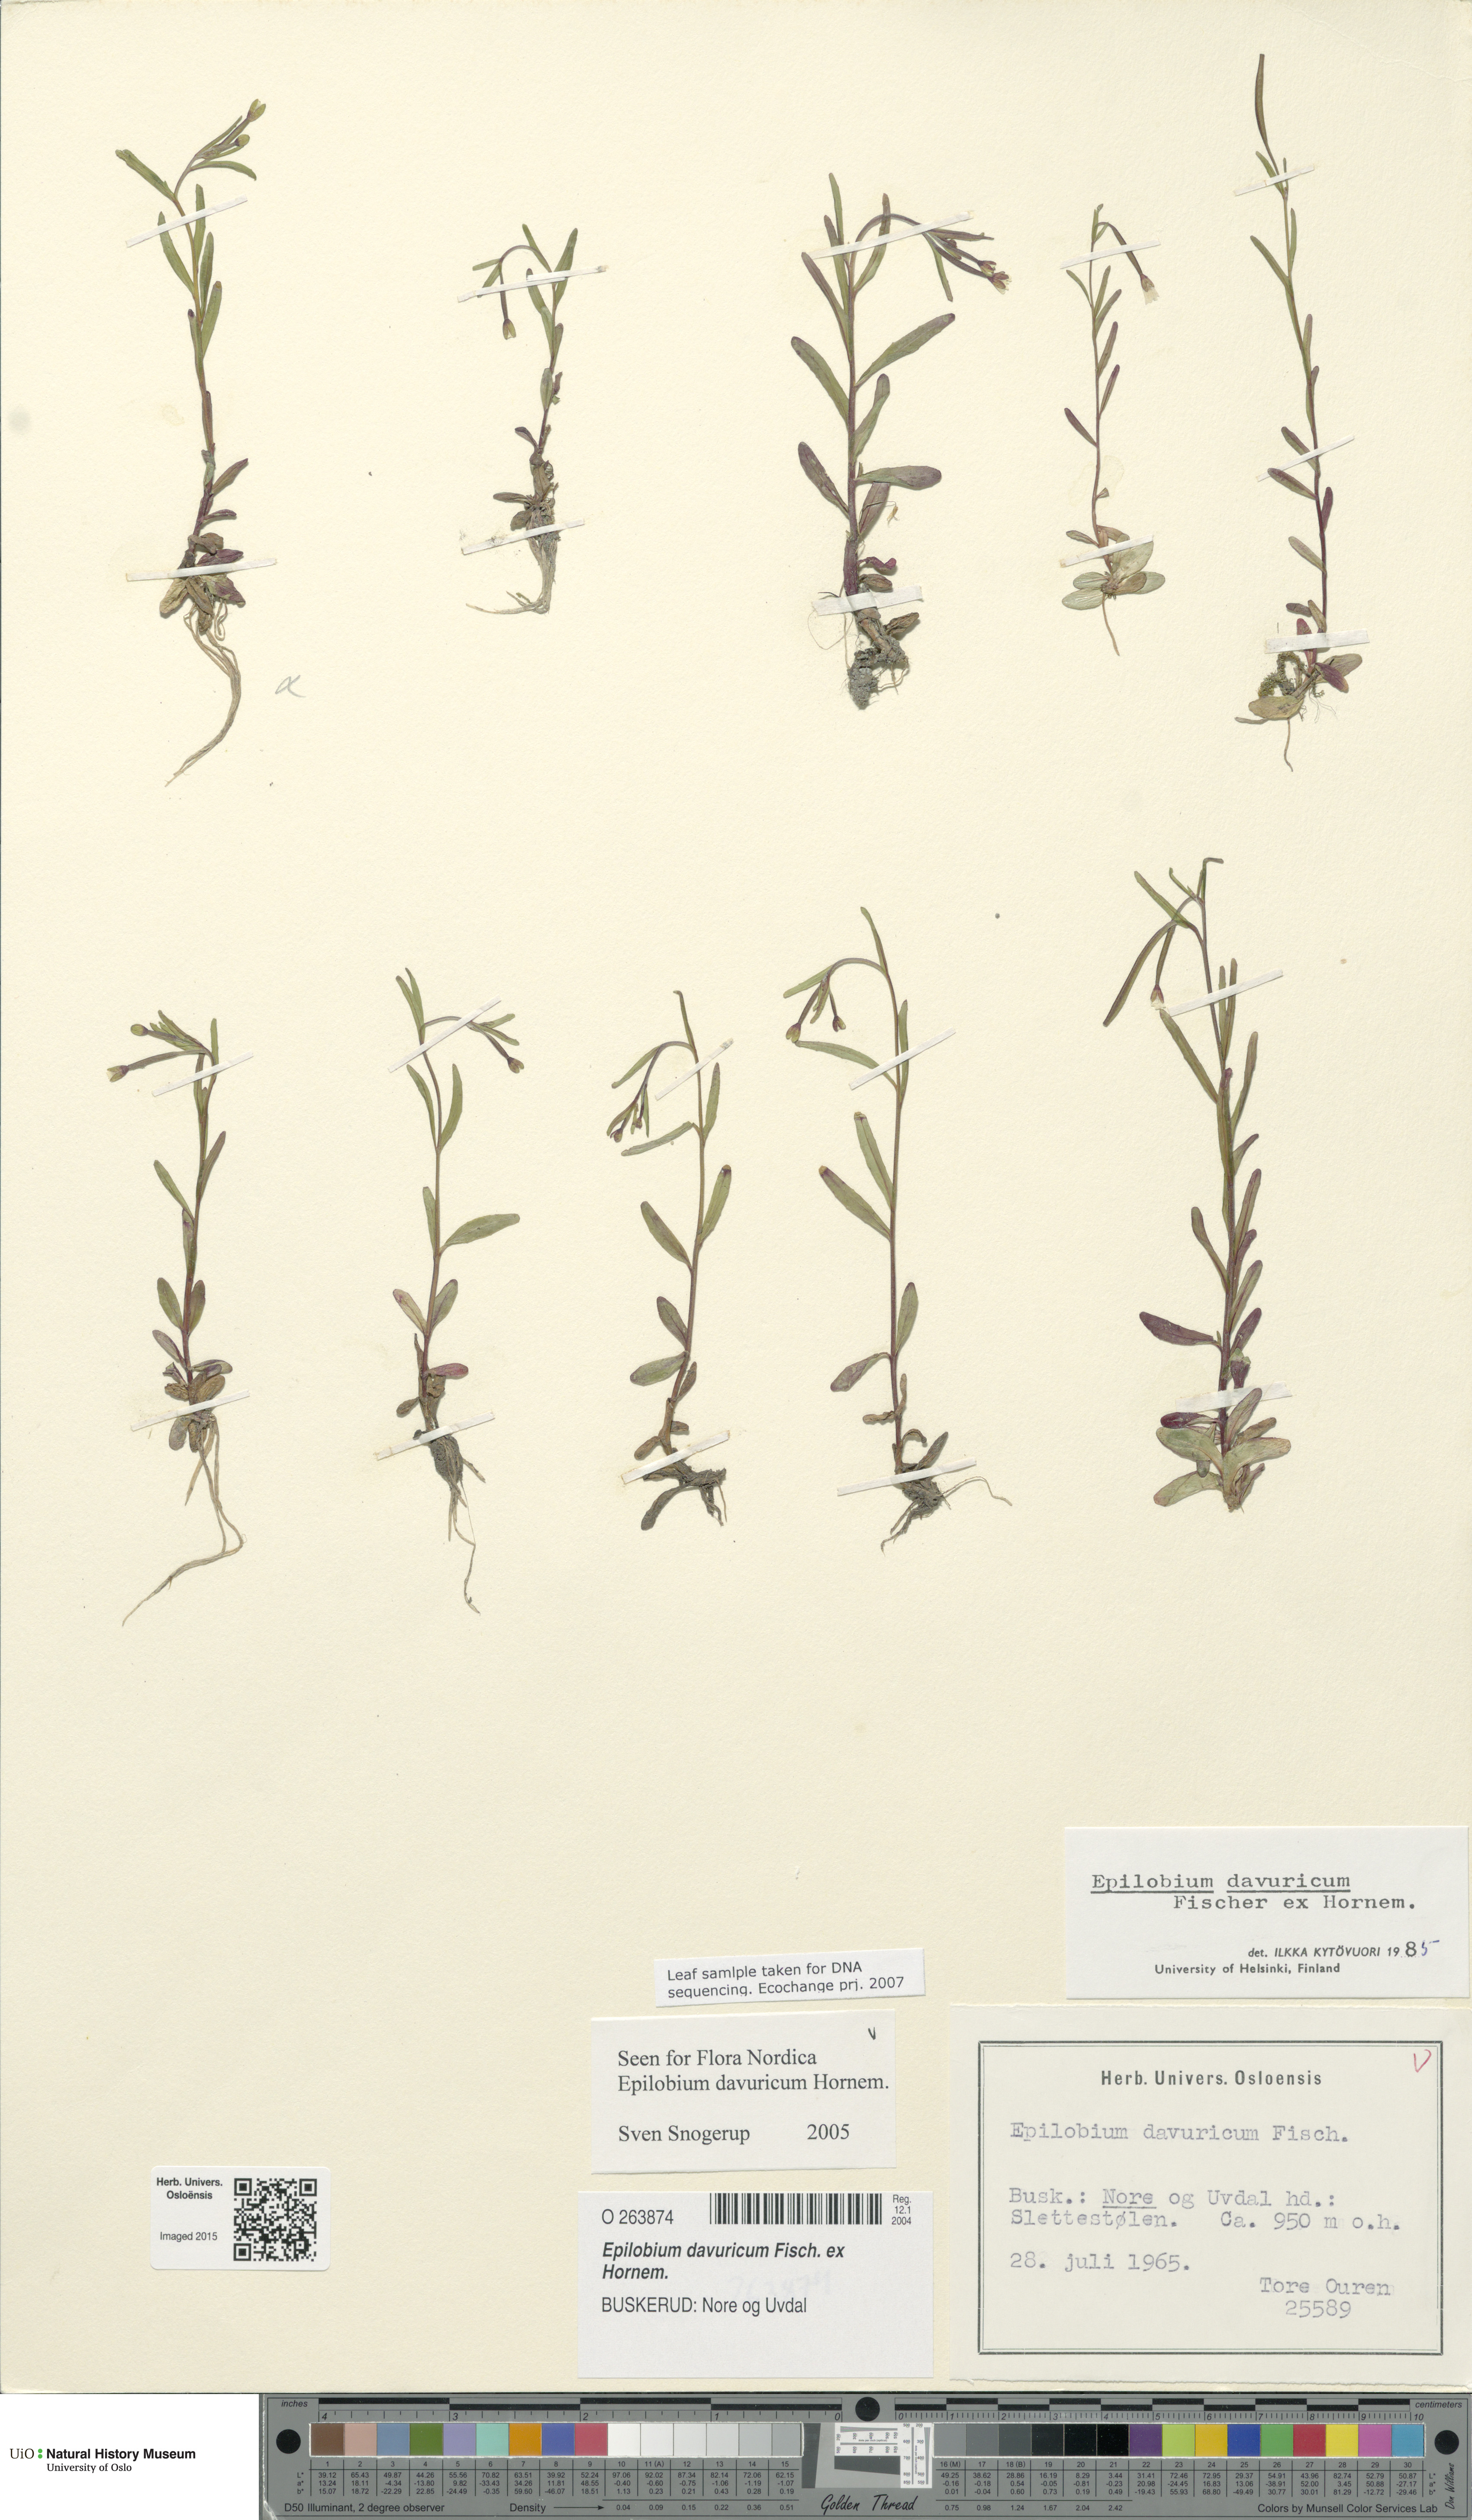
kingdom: Plantae
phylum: Tracheophyta
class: Magnoliopsida
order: Myrtales
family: Onagraceae
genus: Epilobium
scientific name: Epilobium davuricum
